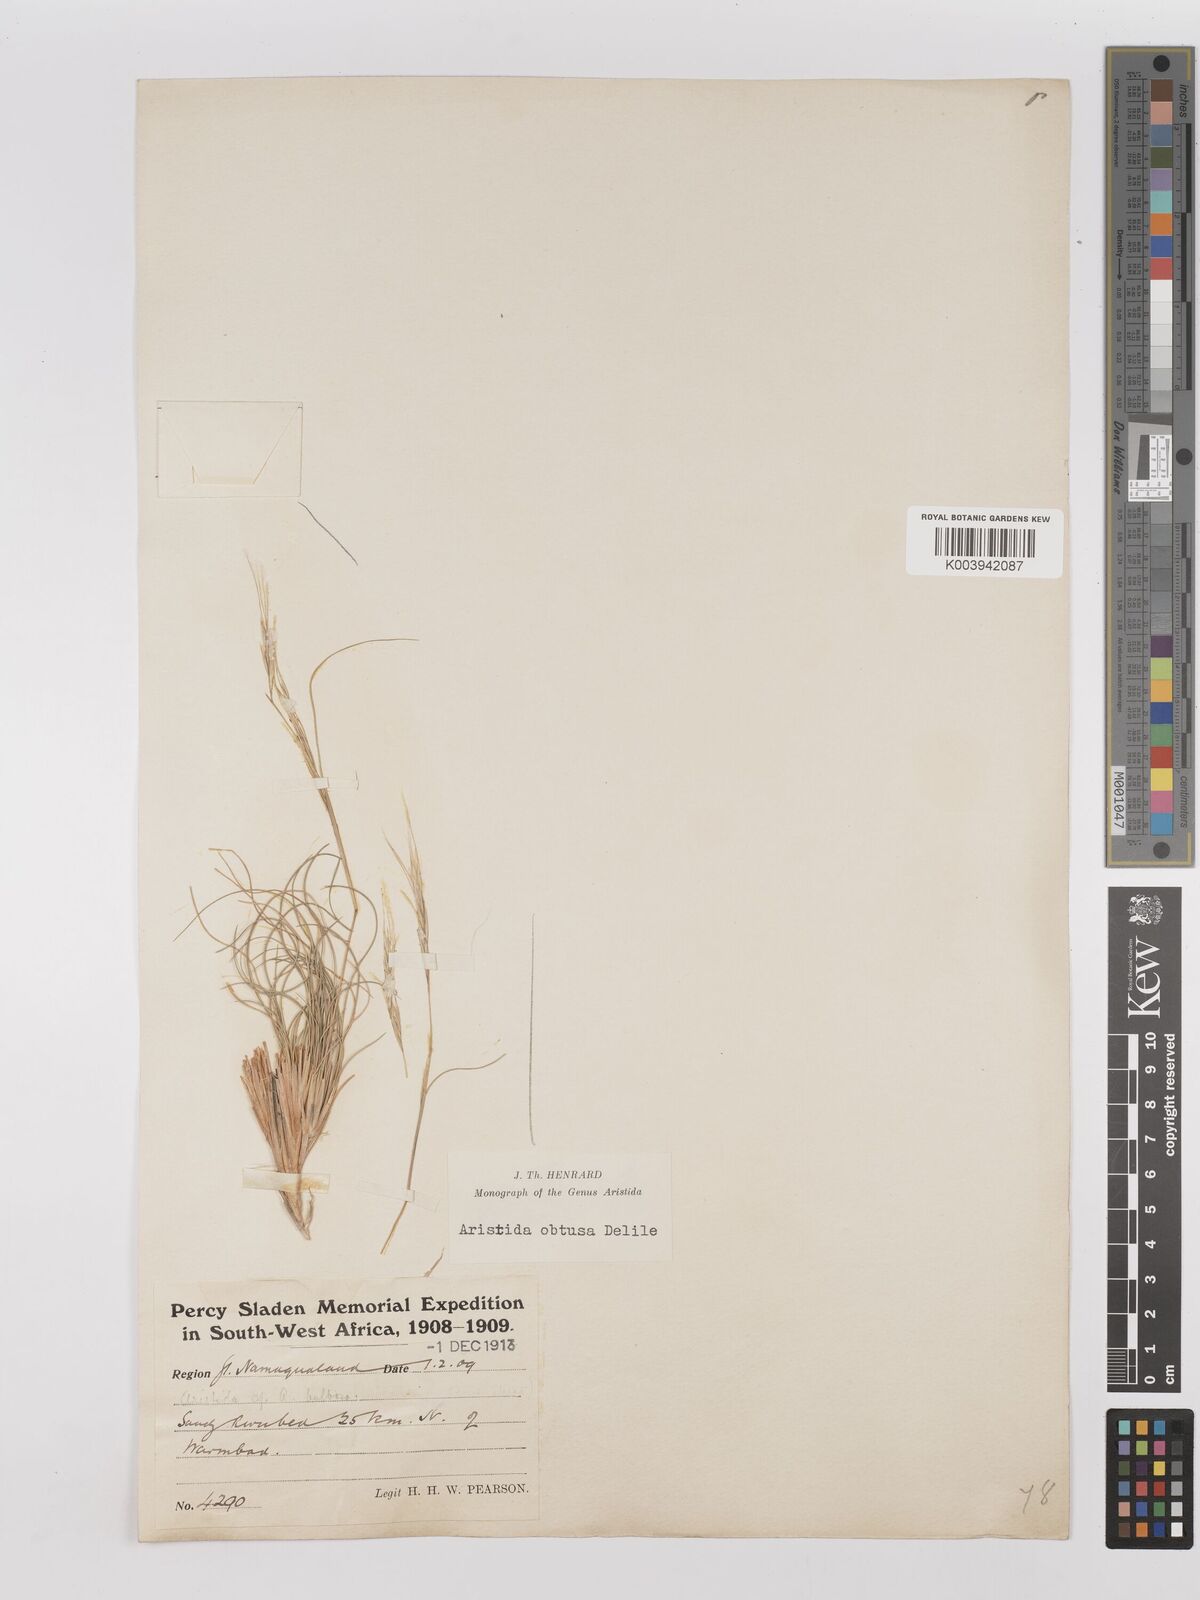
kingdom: Plantae
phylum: Tracheophyta
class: Liliopsida
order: Poales
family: Poaceae
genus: Stipagrostis
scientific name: Stipagrostis obtusa
